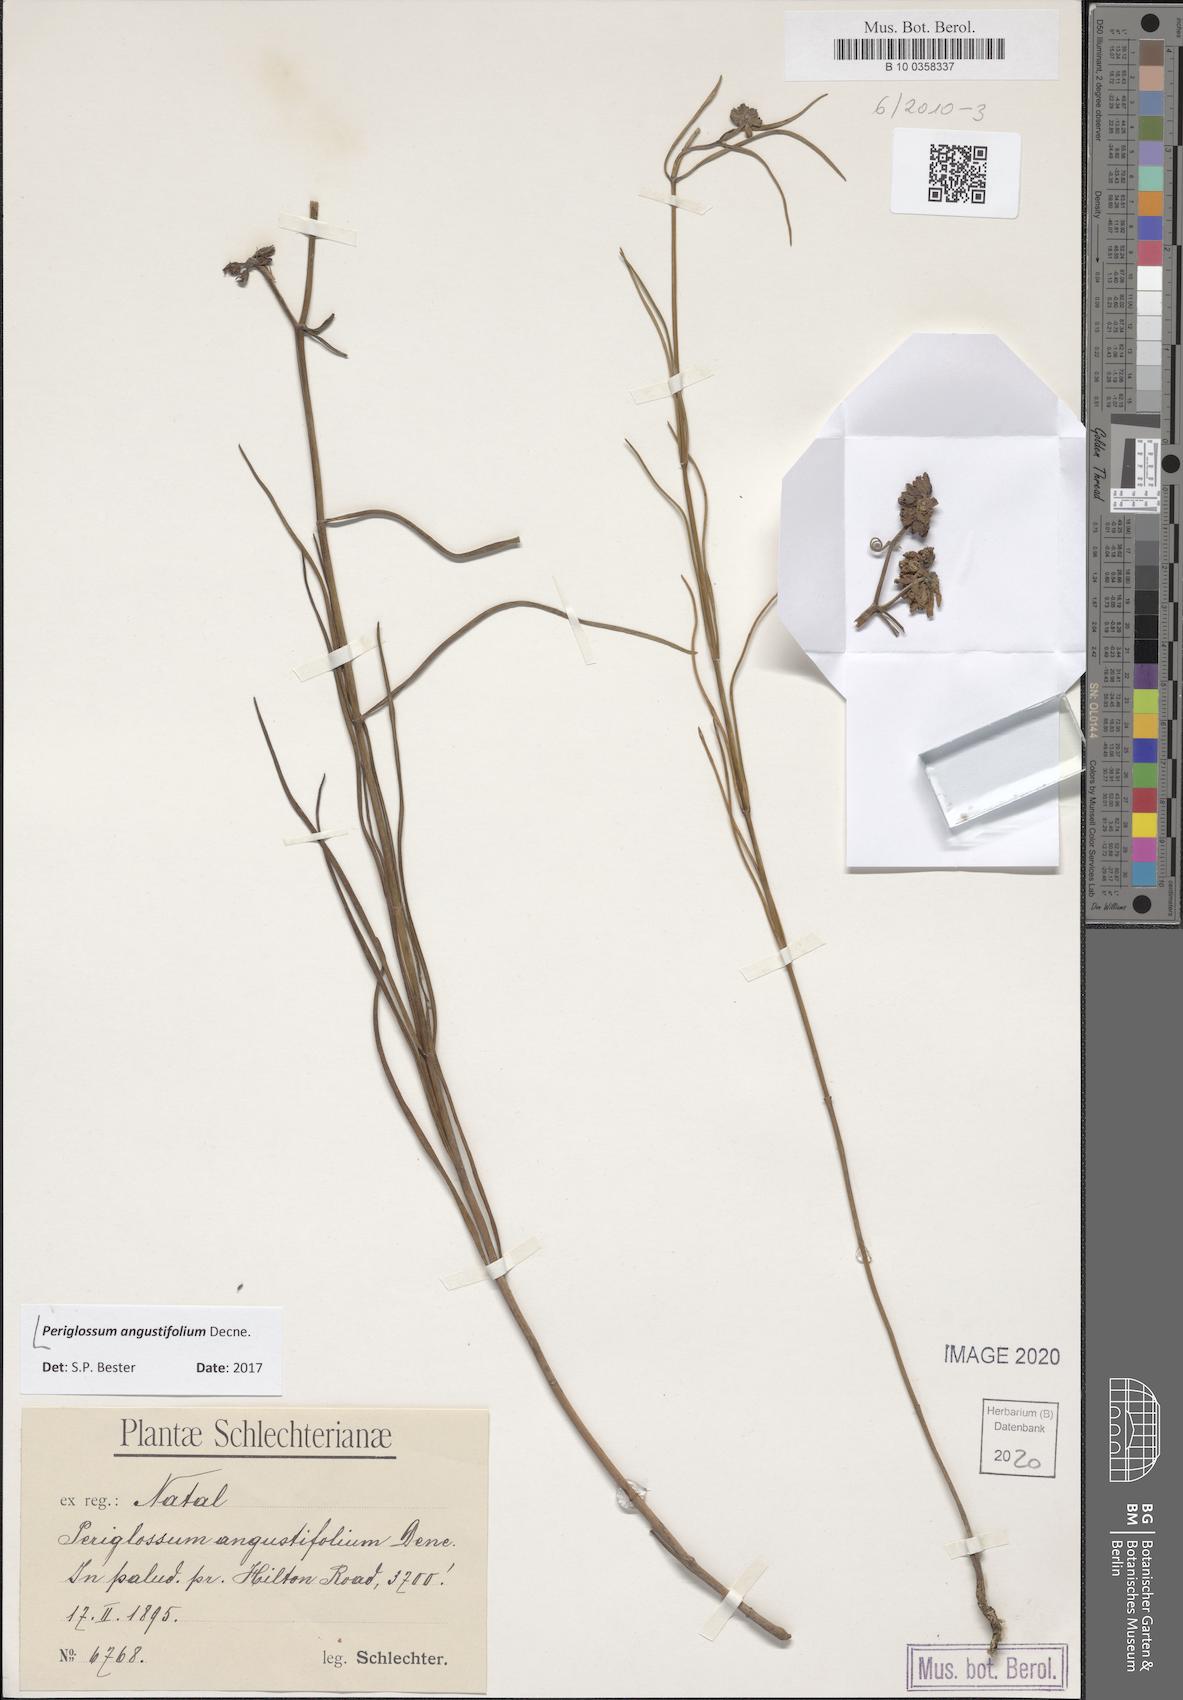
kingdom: Plantae
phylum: Tracheophyta
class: Magnoliopsida
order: Gentianales
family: Apocynaceae
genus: Periglossum
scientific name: Periglossum angustifolium
